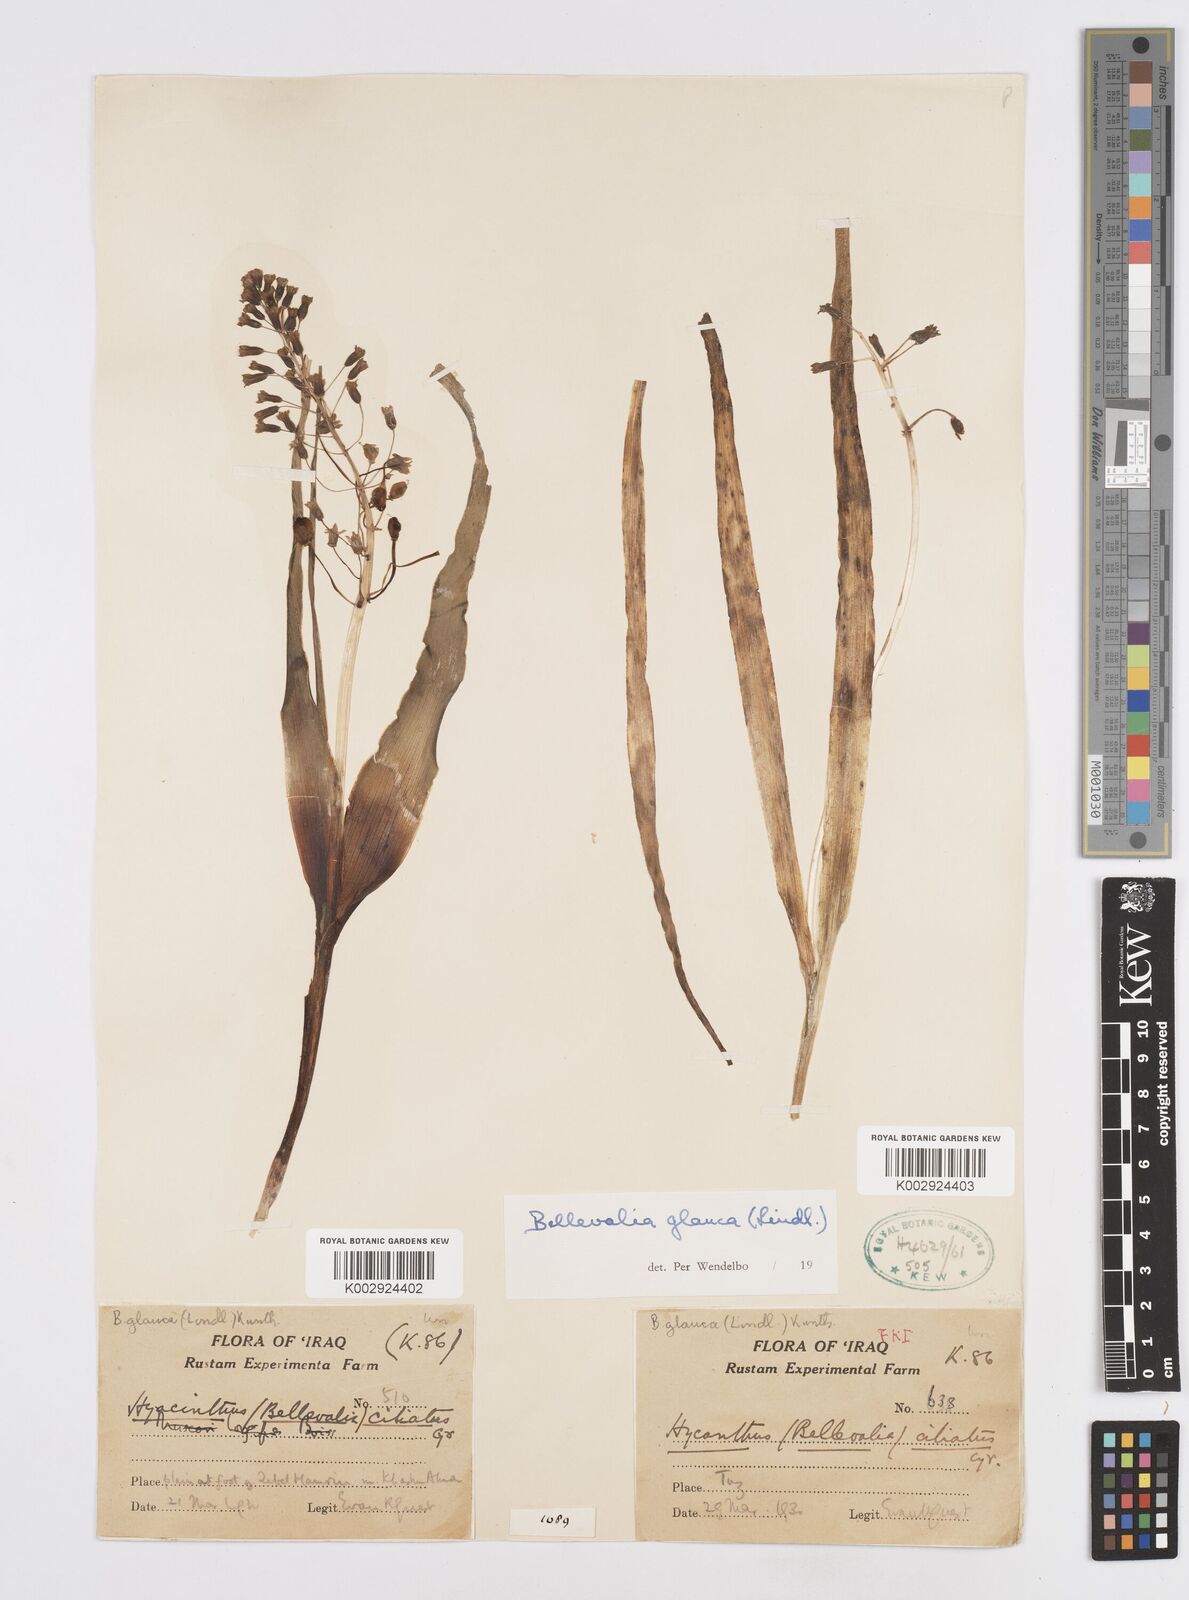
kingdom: Plantae
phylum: Tracheophyta
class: Liliopsida
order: Asparagales
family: Asparagaceae
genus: Bellevalia
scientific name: Bellevalia glauca
